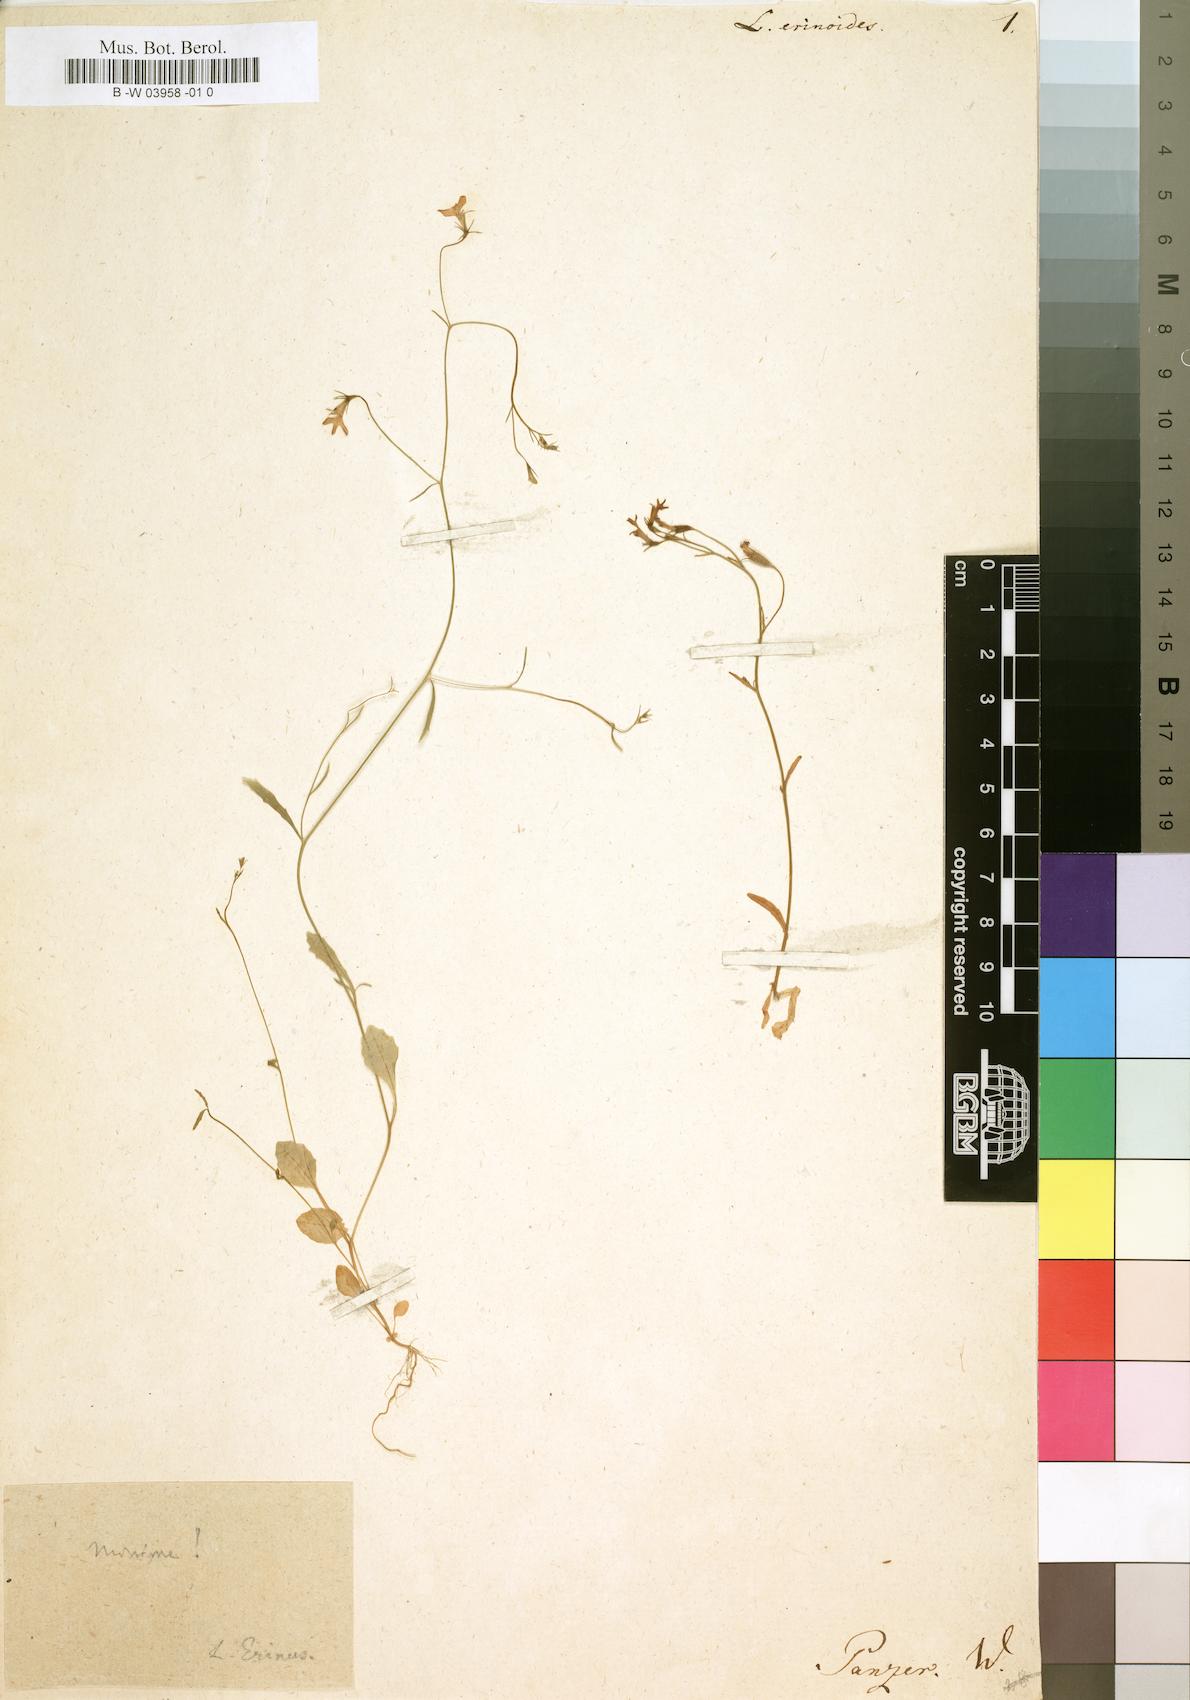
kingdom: Plantae
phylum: Tracheophyta
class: Magnoliopsida
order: Asterales
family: Campanulaceae
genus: Lobelia
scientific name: Lobelia erinoides
